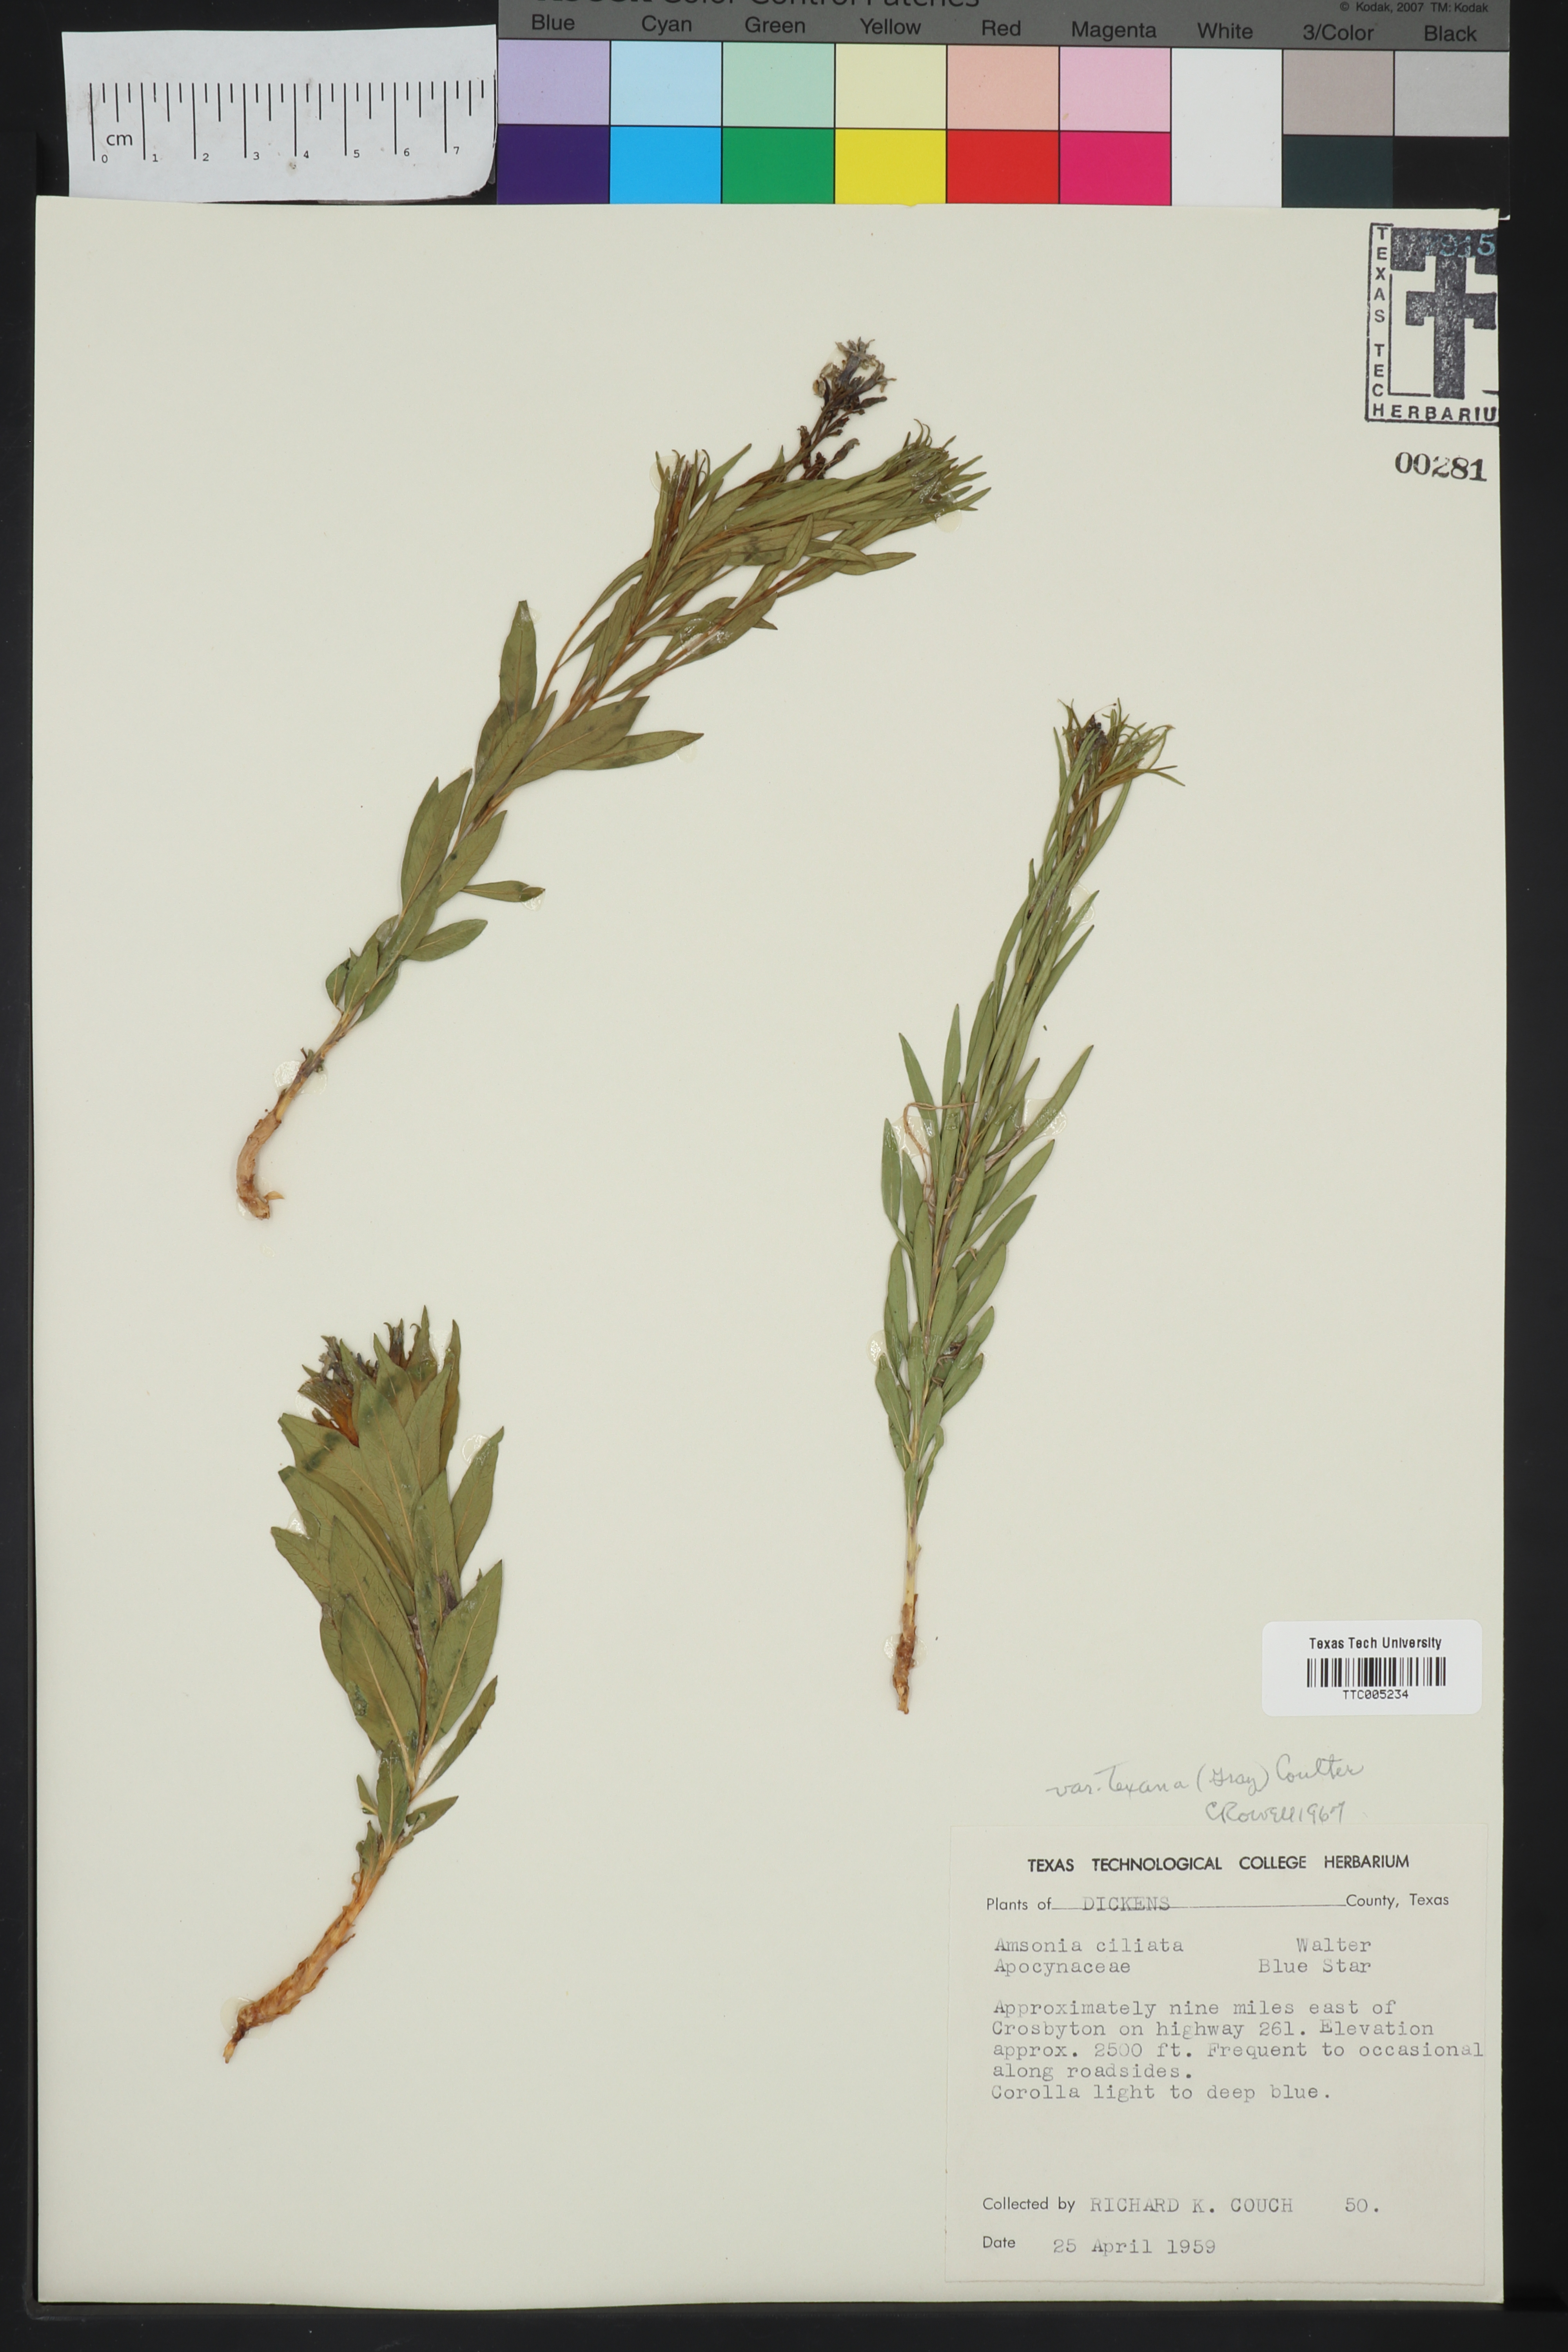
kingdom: Plantae
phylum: Tracheophyta
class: Magnoliopsida
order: Gentianales
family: Apocynaceae
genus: Amsonia
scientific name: Amsonia ciliata
